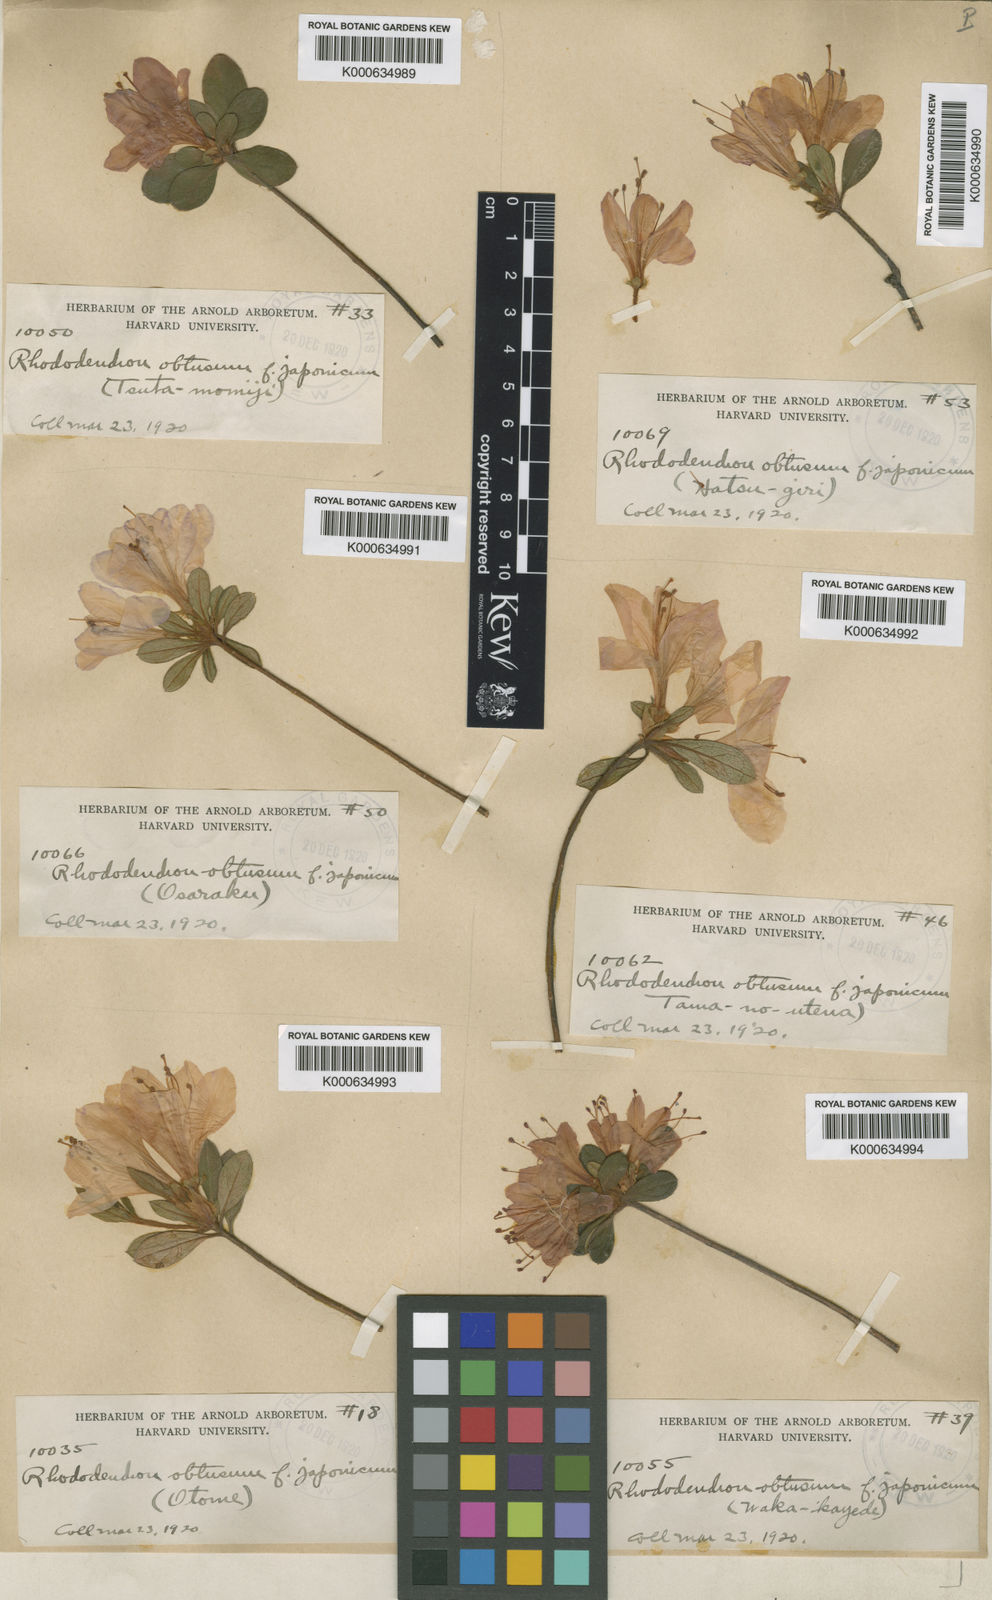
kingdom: Plantae
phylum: Tracheophyta
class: Magnoliopsida
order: Ericales
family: Ericaceae
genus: Rhododendron
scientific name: Rhododendron kiusianum
